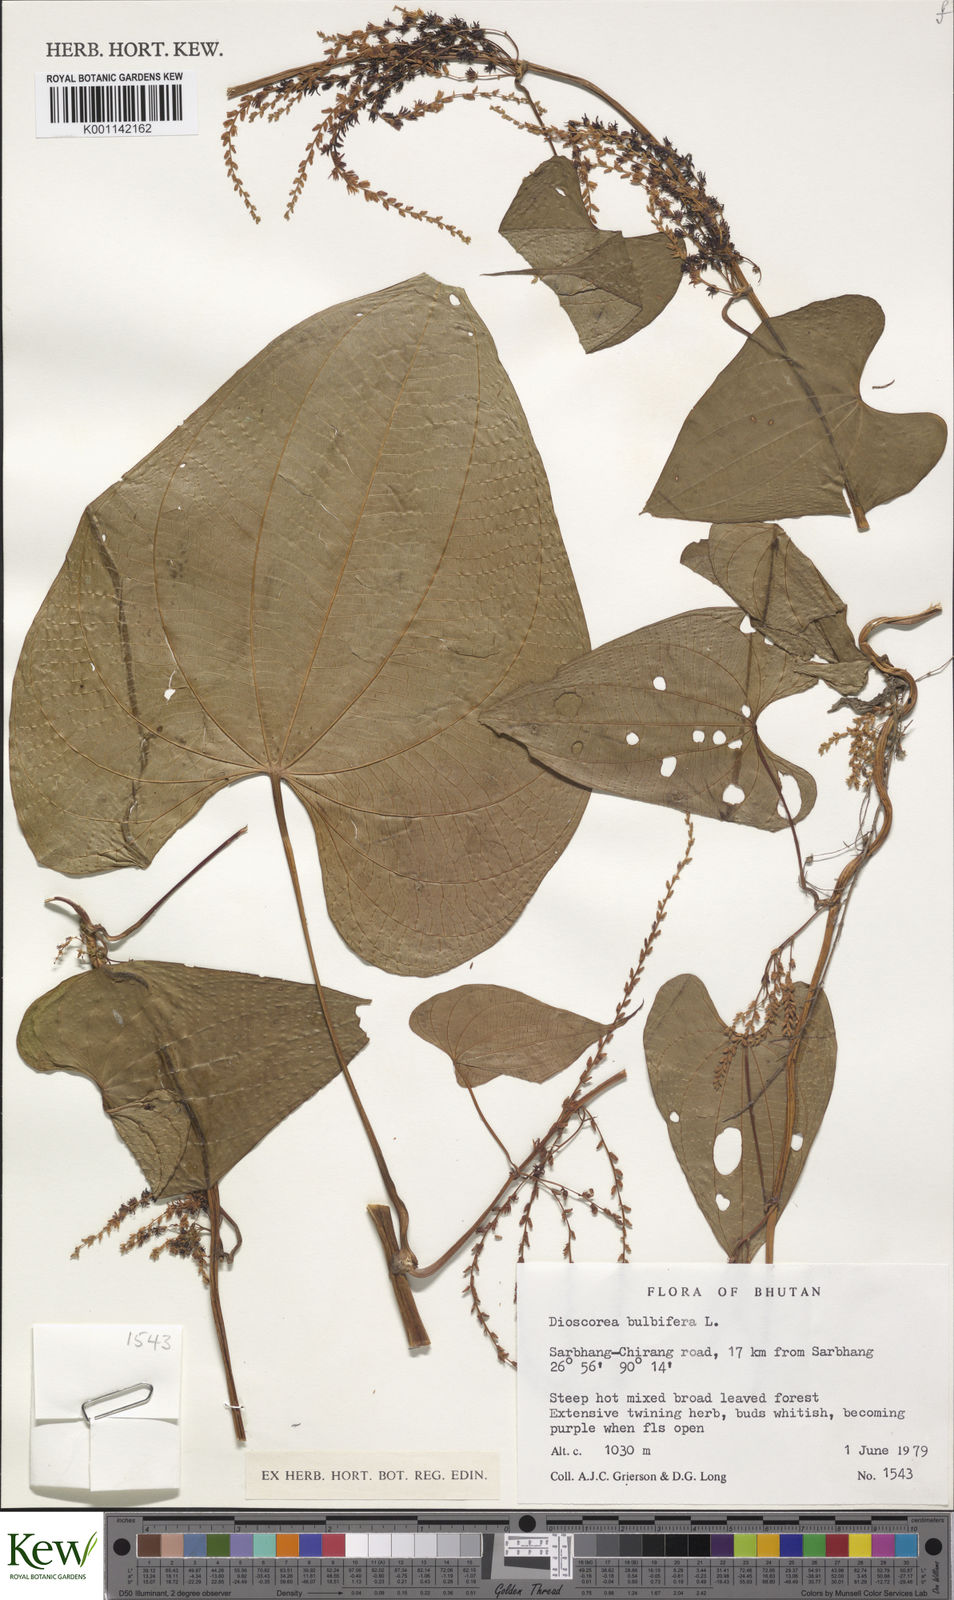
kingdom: Plantae
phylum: Tracheophyta
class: Liliopsida
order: Dioscoreales
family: Dioscoreaceae
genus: Dioscorea
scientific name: Dioscorea bulbifera
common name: Air yam
